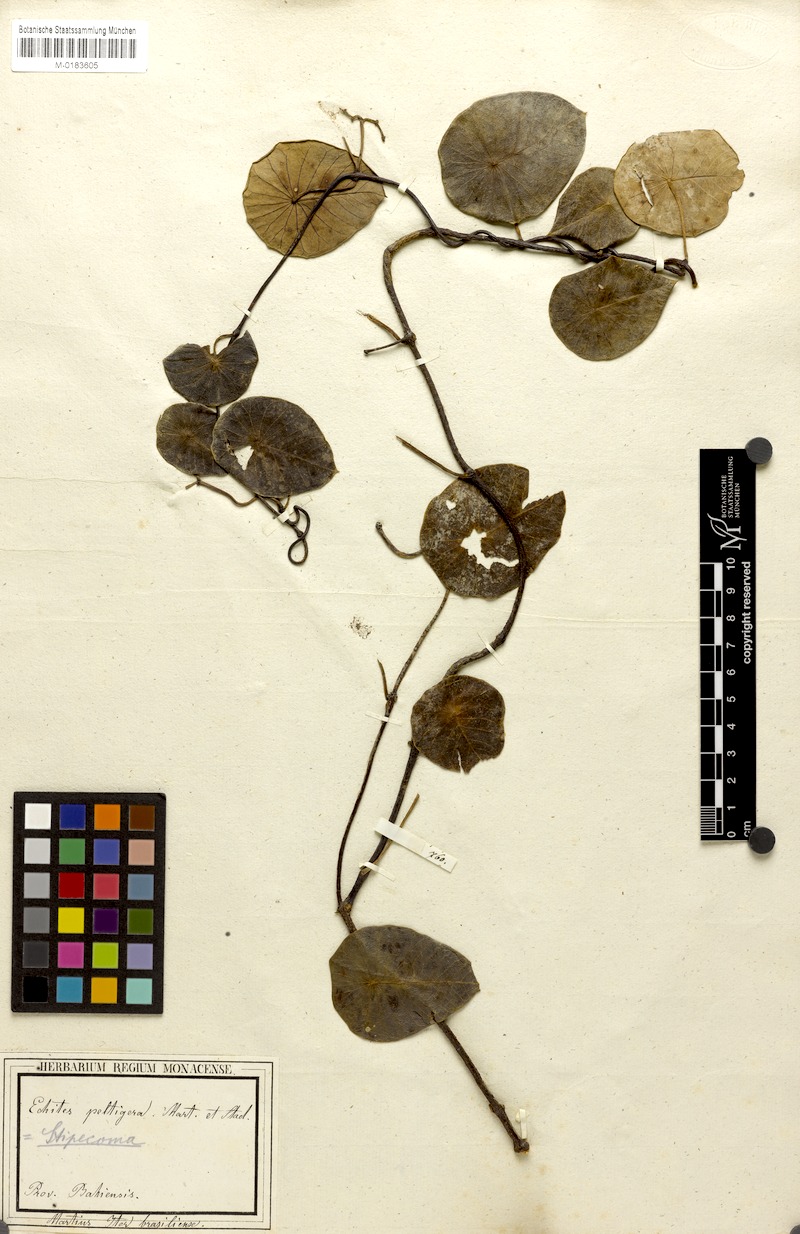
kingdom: Plantae
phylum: Tracheophyta
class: Magnoliopsida
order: Gentianales
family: Apocynaceae
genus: Stipecoma
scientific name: Stipecoma peltigera
